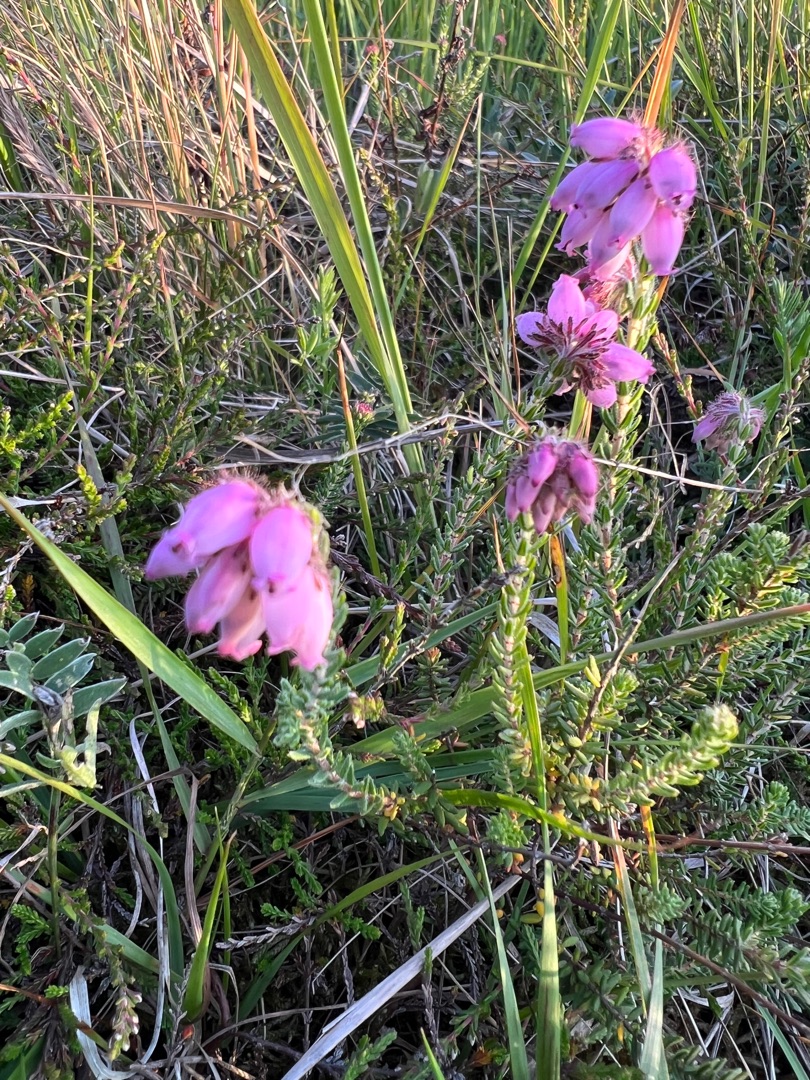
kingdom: Plantae
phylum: Tracheophyta
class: Magnoliopsida
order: Ericales
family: Ericaceae
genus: Erica
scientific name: Erica tetralix
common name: Klokkelyng
